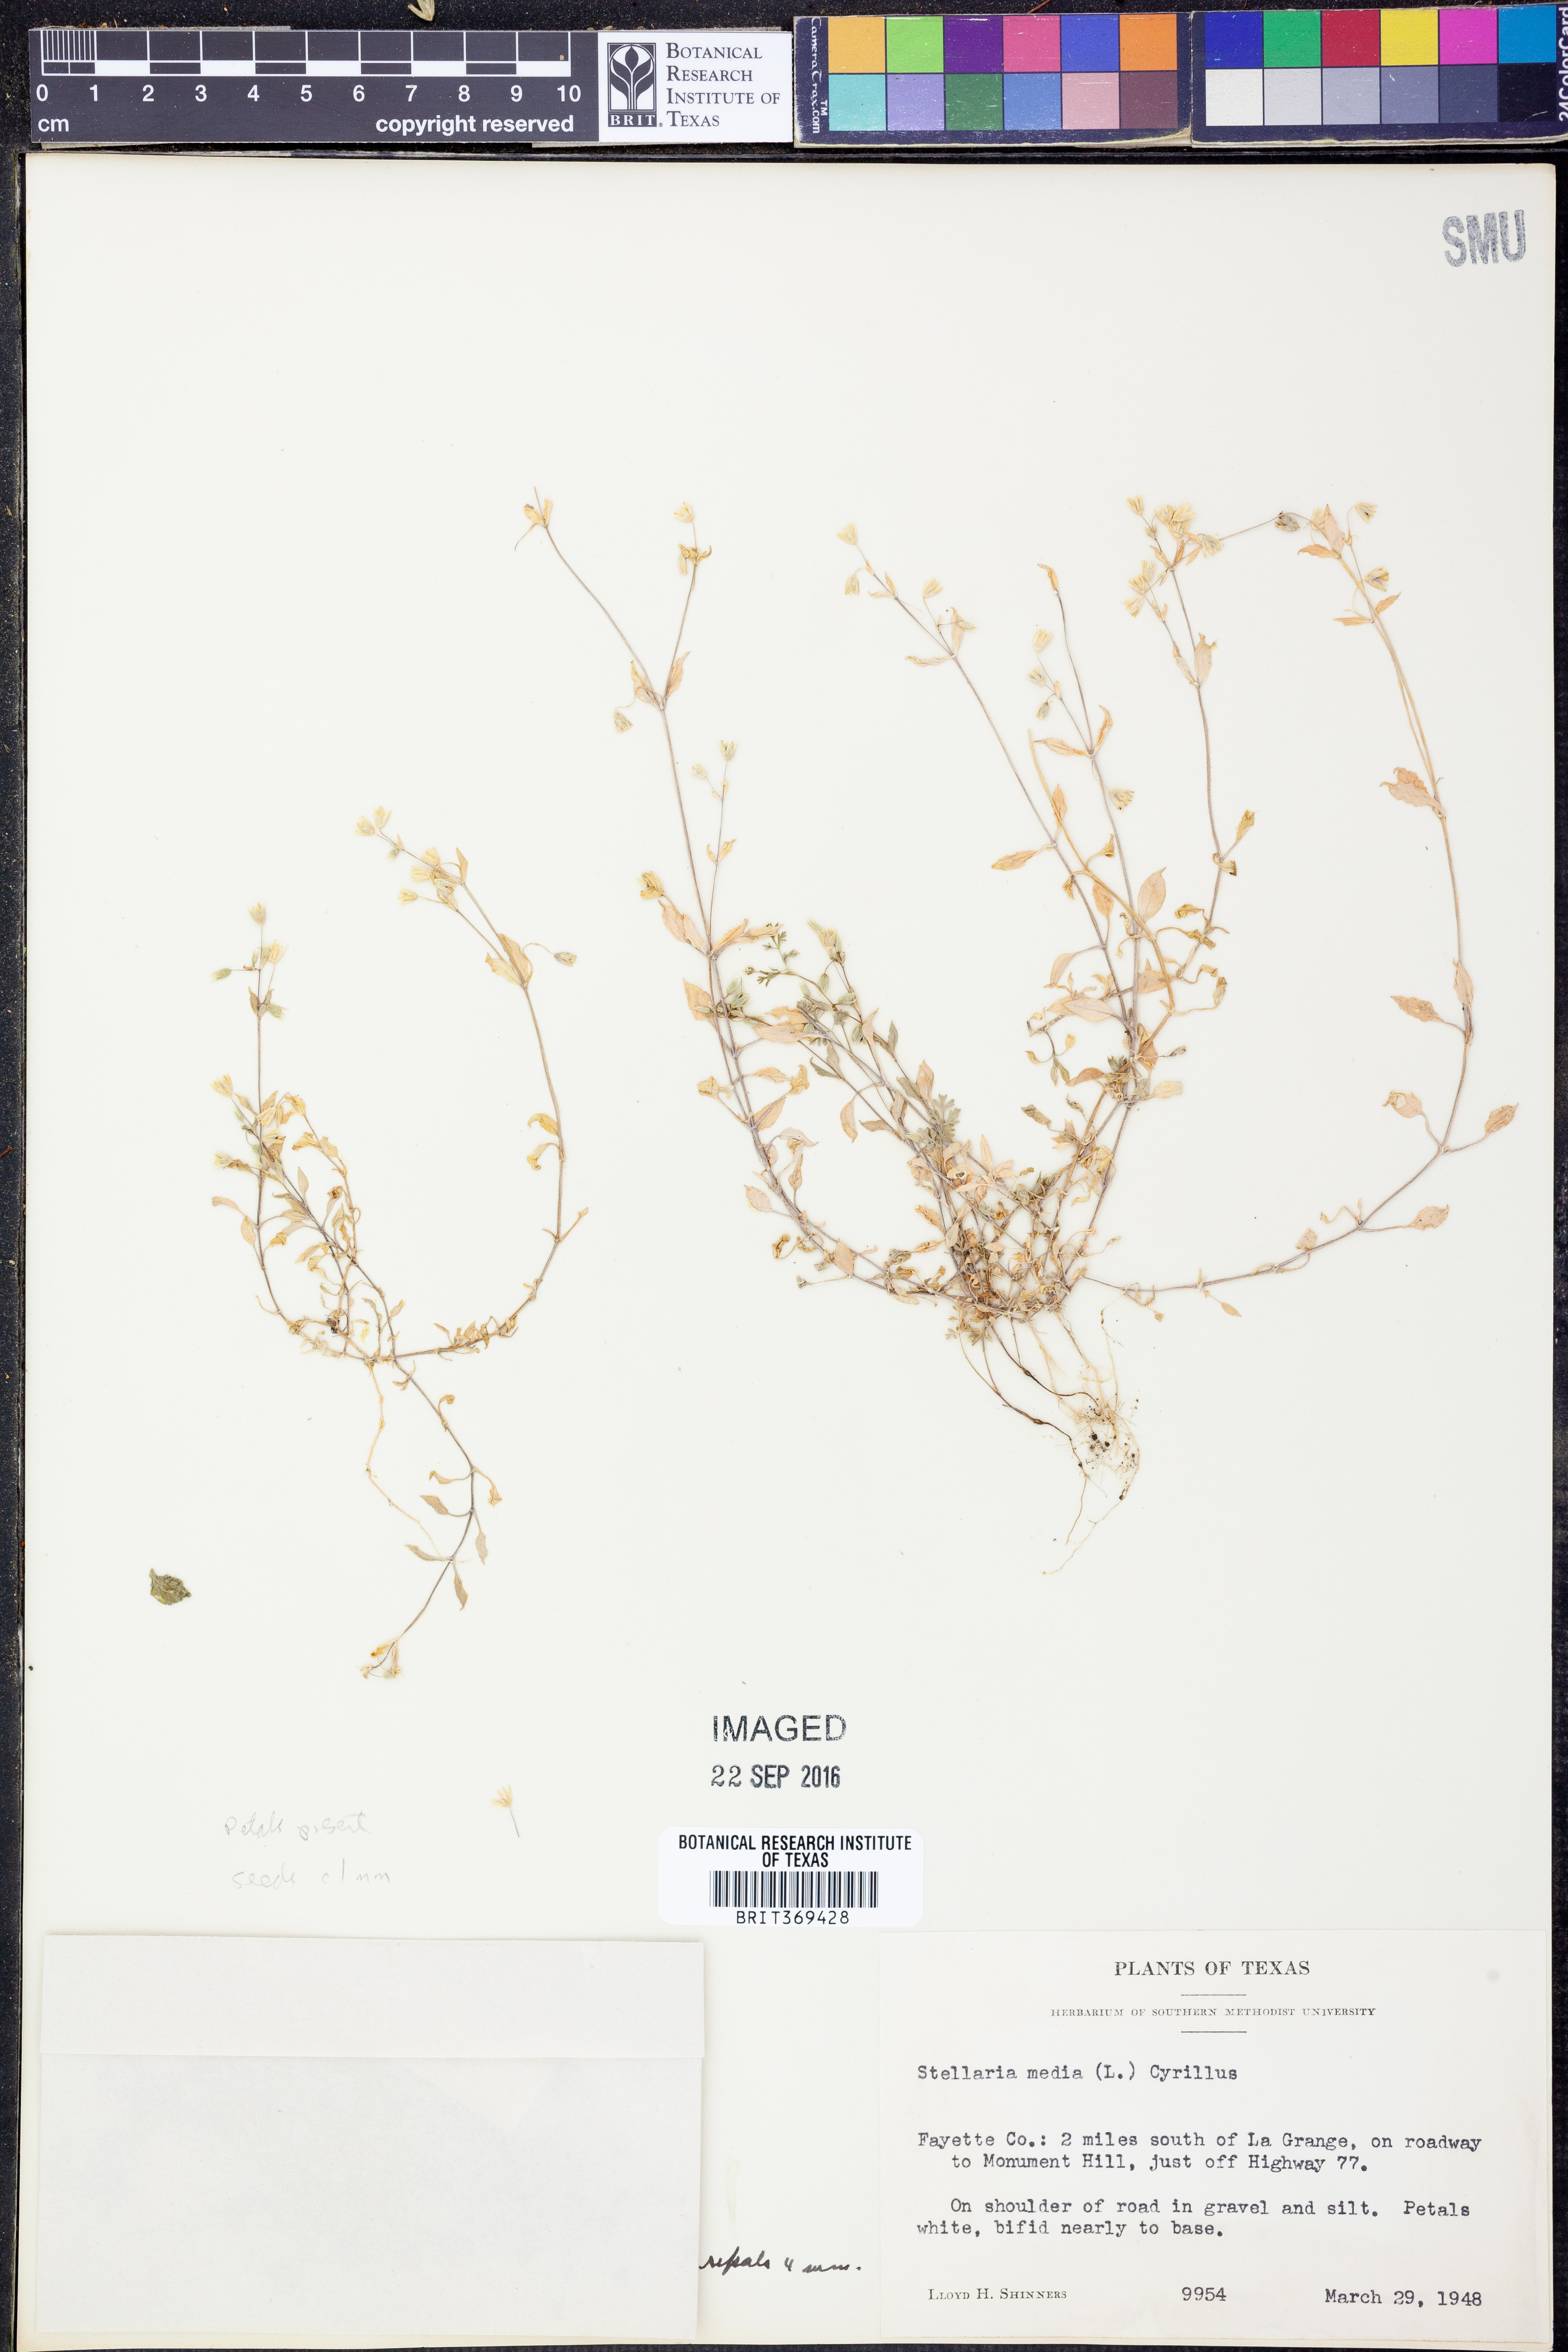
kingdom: Plantae
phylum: Tracheophyta
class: Magnoliopsida
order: Caryophyllales
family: Caryophyllaceae
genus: Stellaria
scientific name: Stellaria media
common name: Common chickweed
